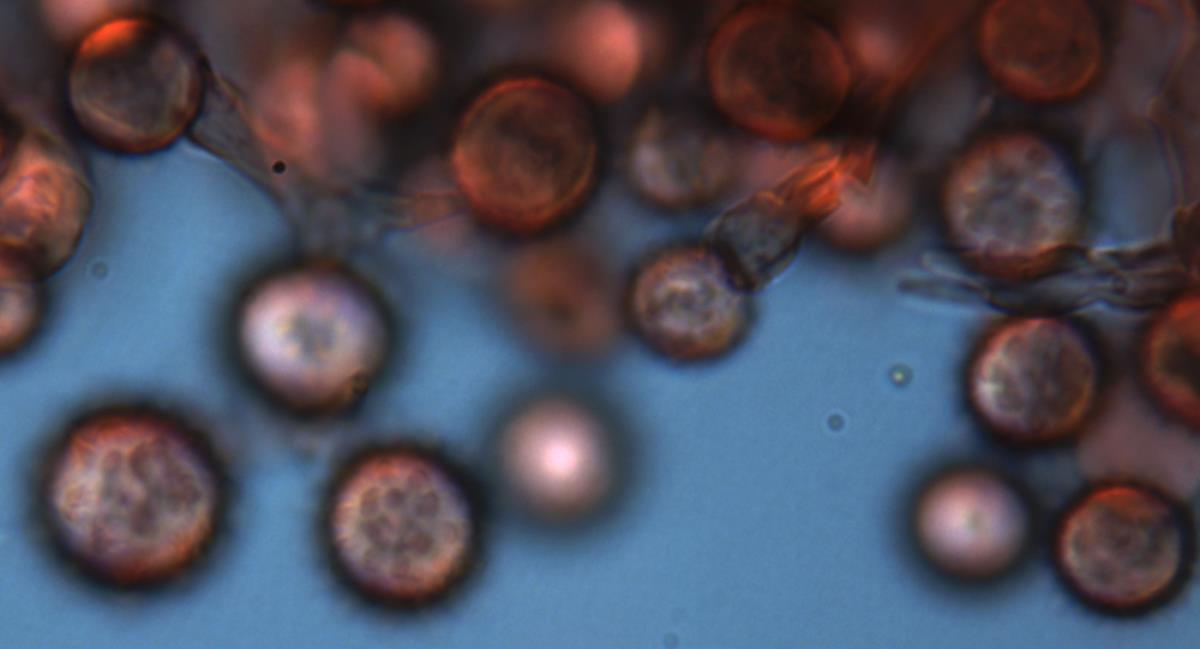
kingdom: Fungi
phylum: Basidiomycota
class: Agaricomycetes
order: Agaricales
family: Hydnangiaceae
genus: Hydnangium
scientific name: Hydnangium kanuka
